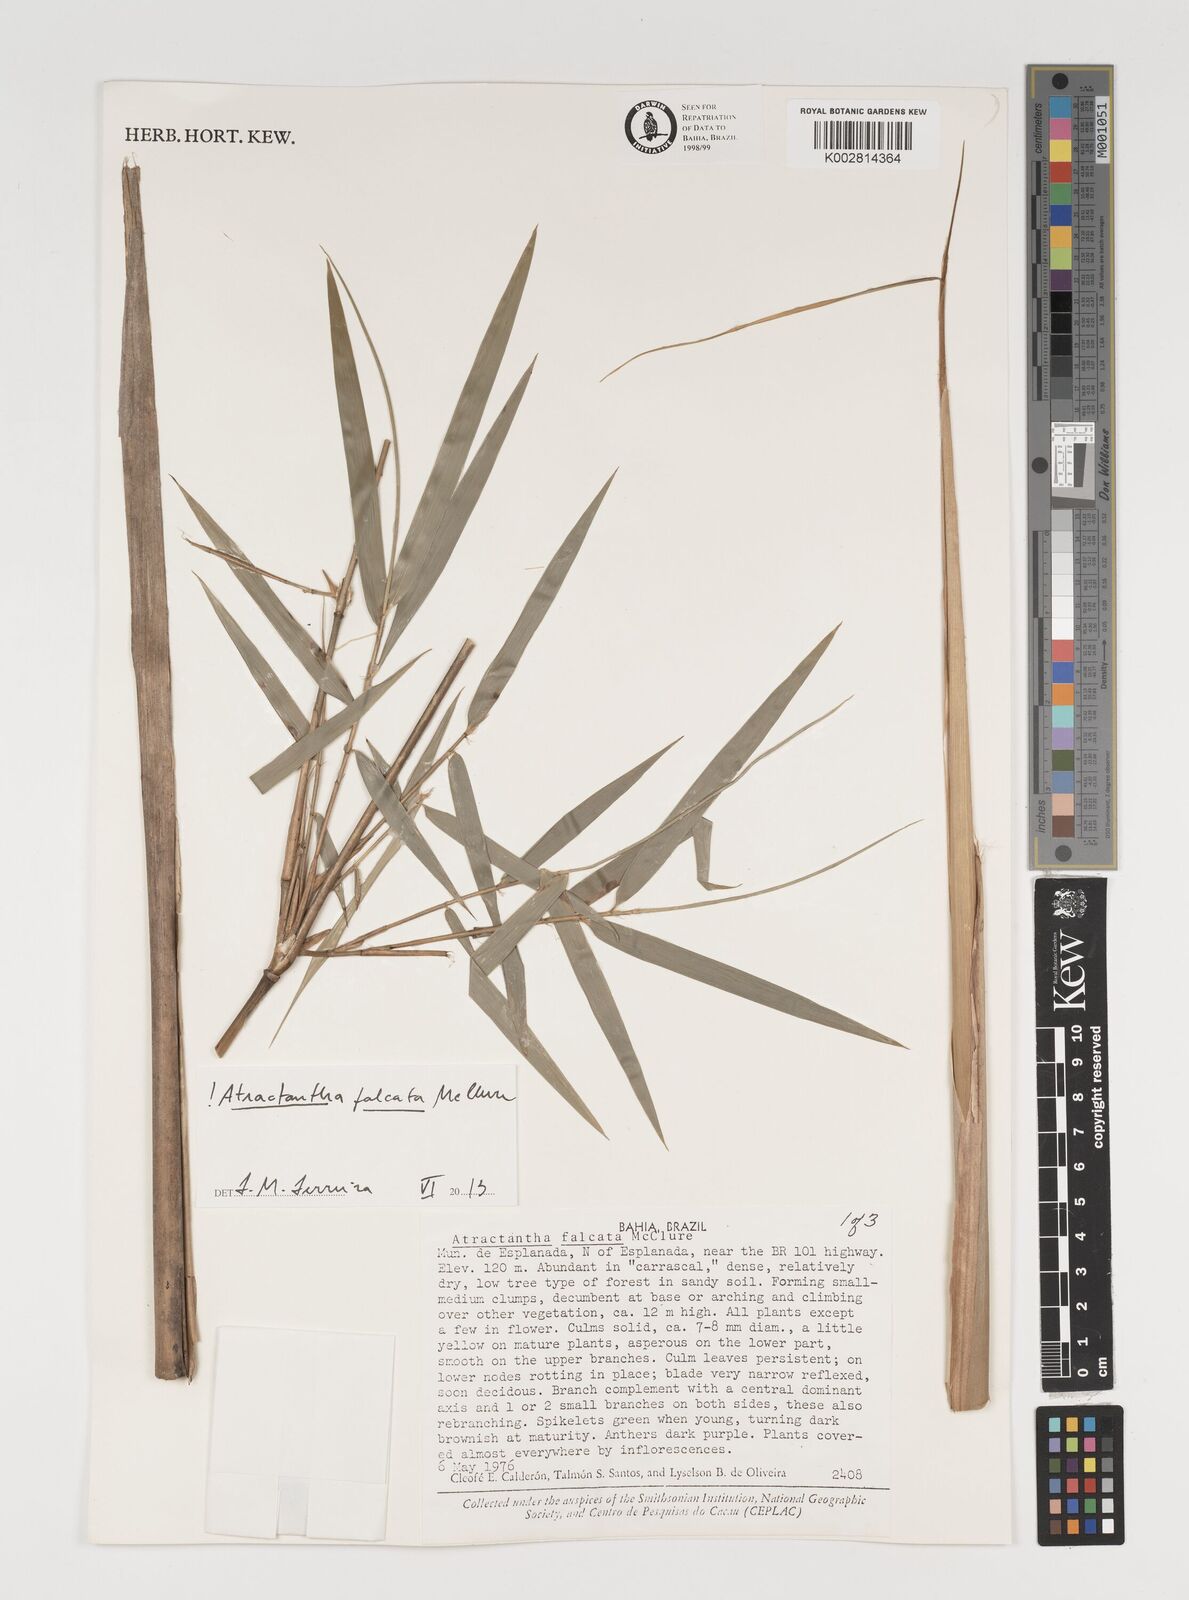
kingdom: Plantae
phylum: Tracheophyta
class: Liliopsida
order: Poales
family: Poaceae
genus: Atractantha
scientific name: Atractantha falcata
